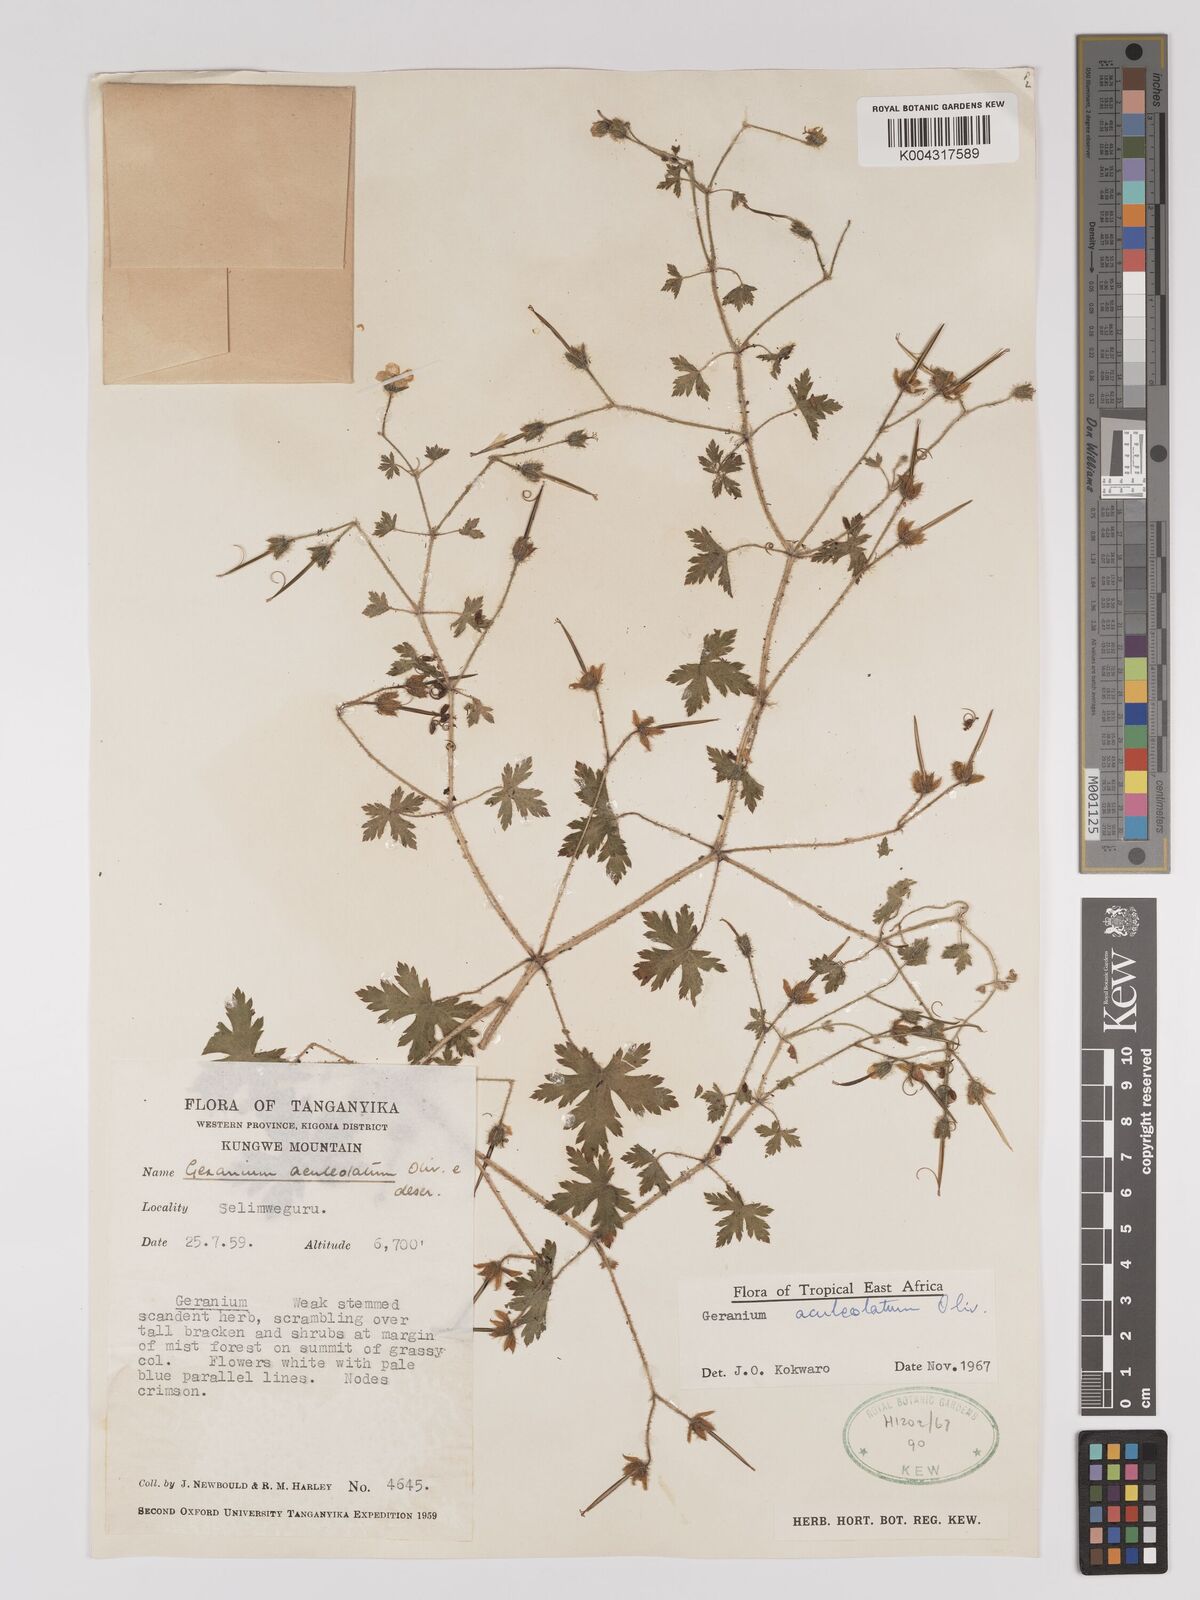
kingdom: Plantae
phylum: Tracheophyta
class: Magnoliopsida
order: Geraniales
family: Geraniaceae
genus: Geranium
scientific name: Geranium aculeolatum
